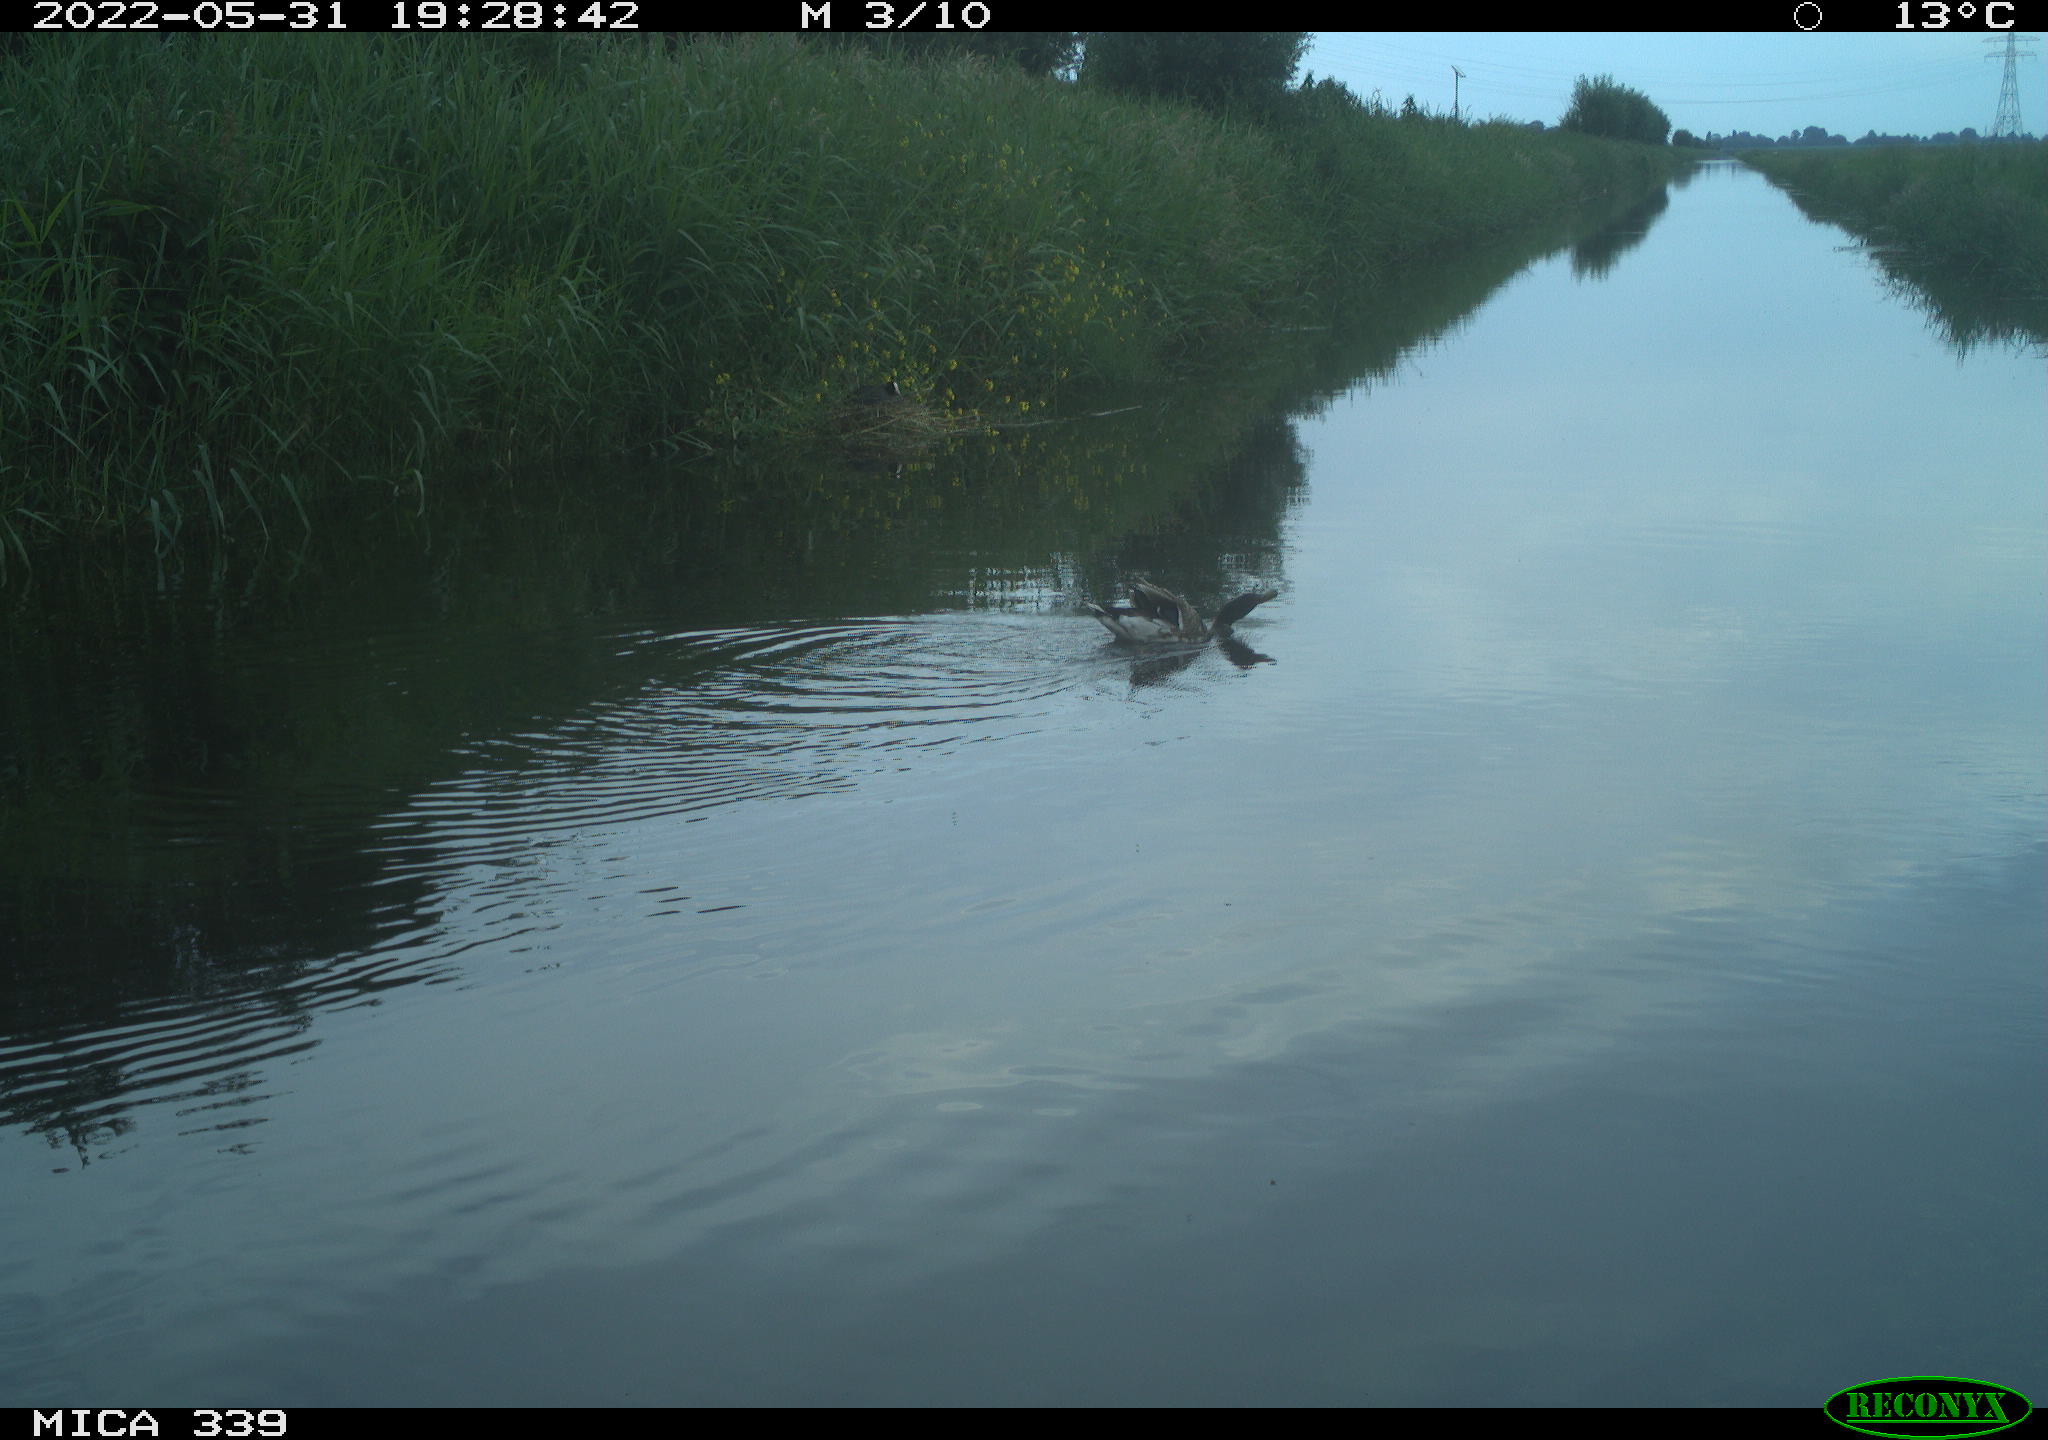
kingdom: Animalia
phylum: Chordata
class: Aves
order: Anseriformes
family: Anatidae
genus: Anas
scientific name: Anas platyrhynchos
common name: Mallard
